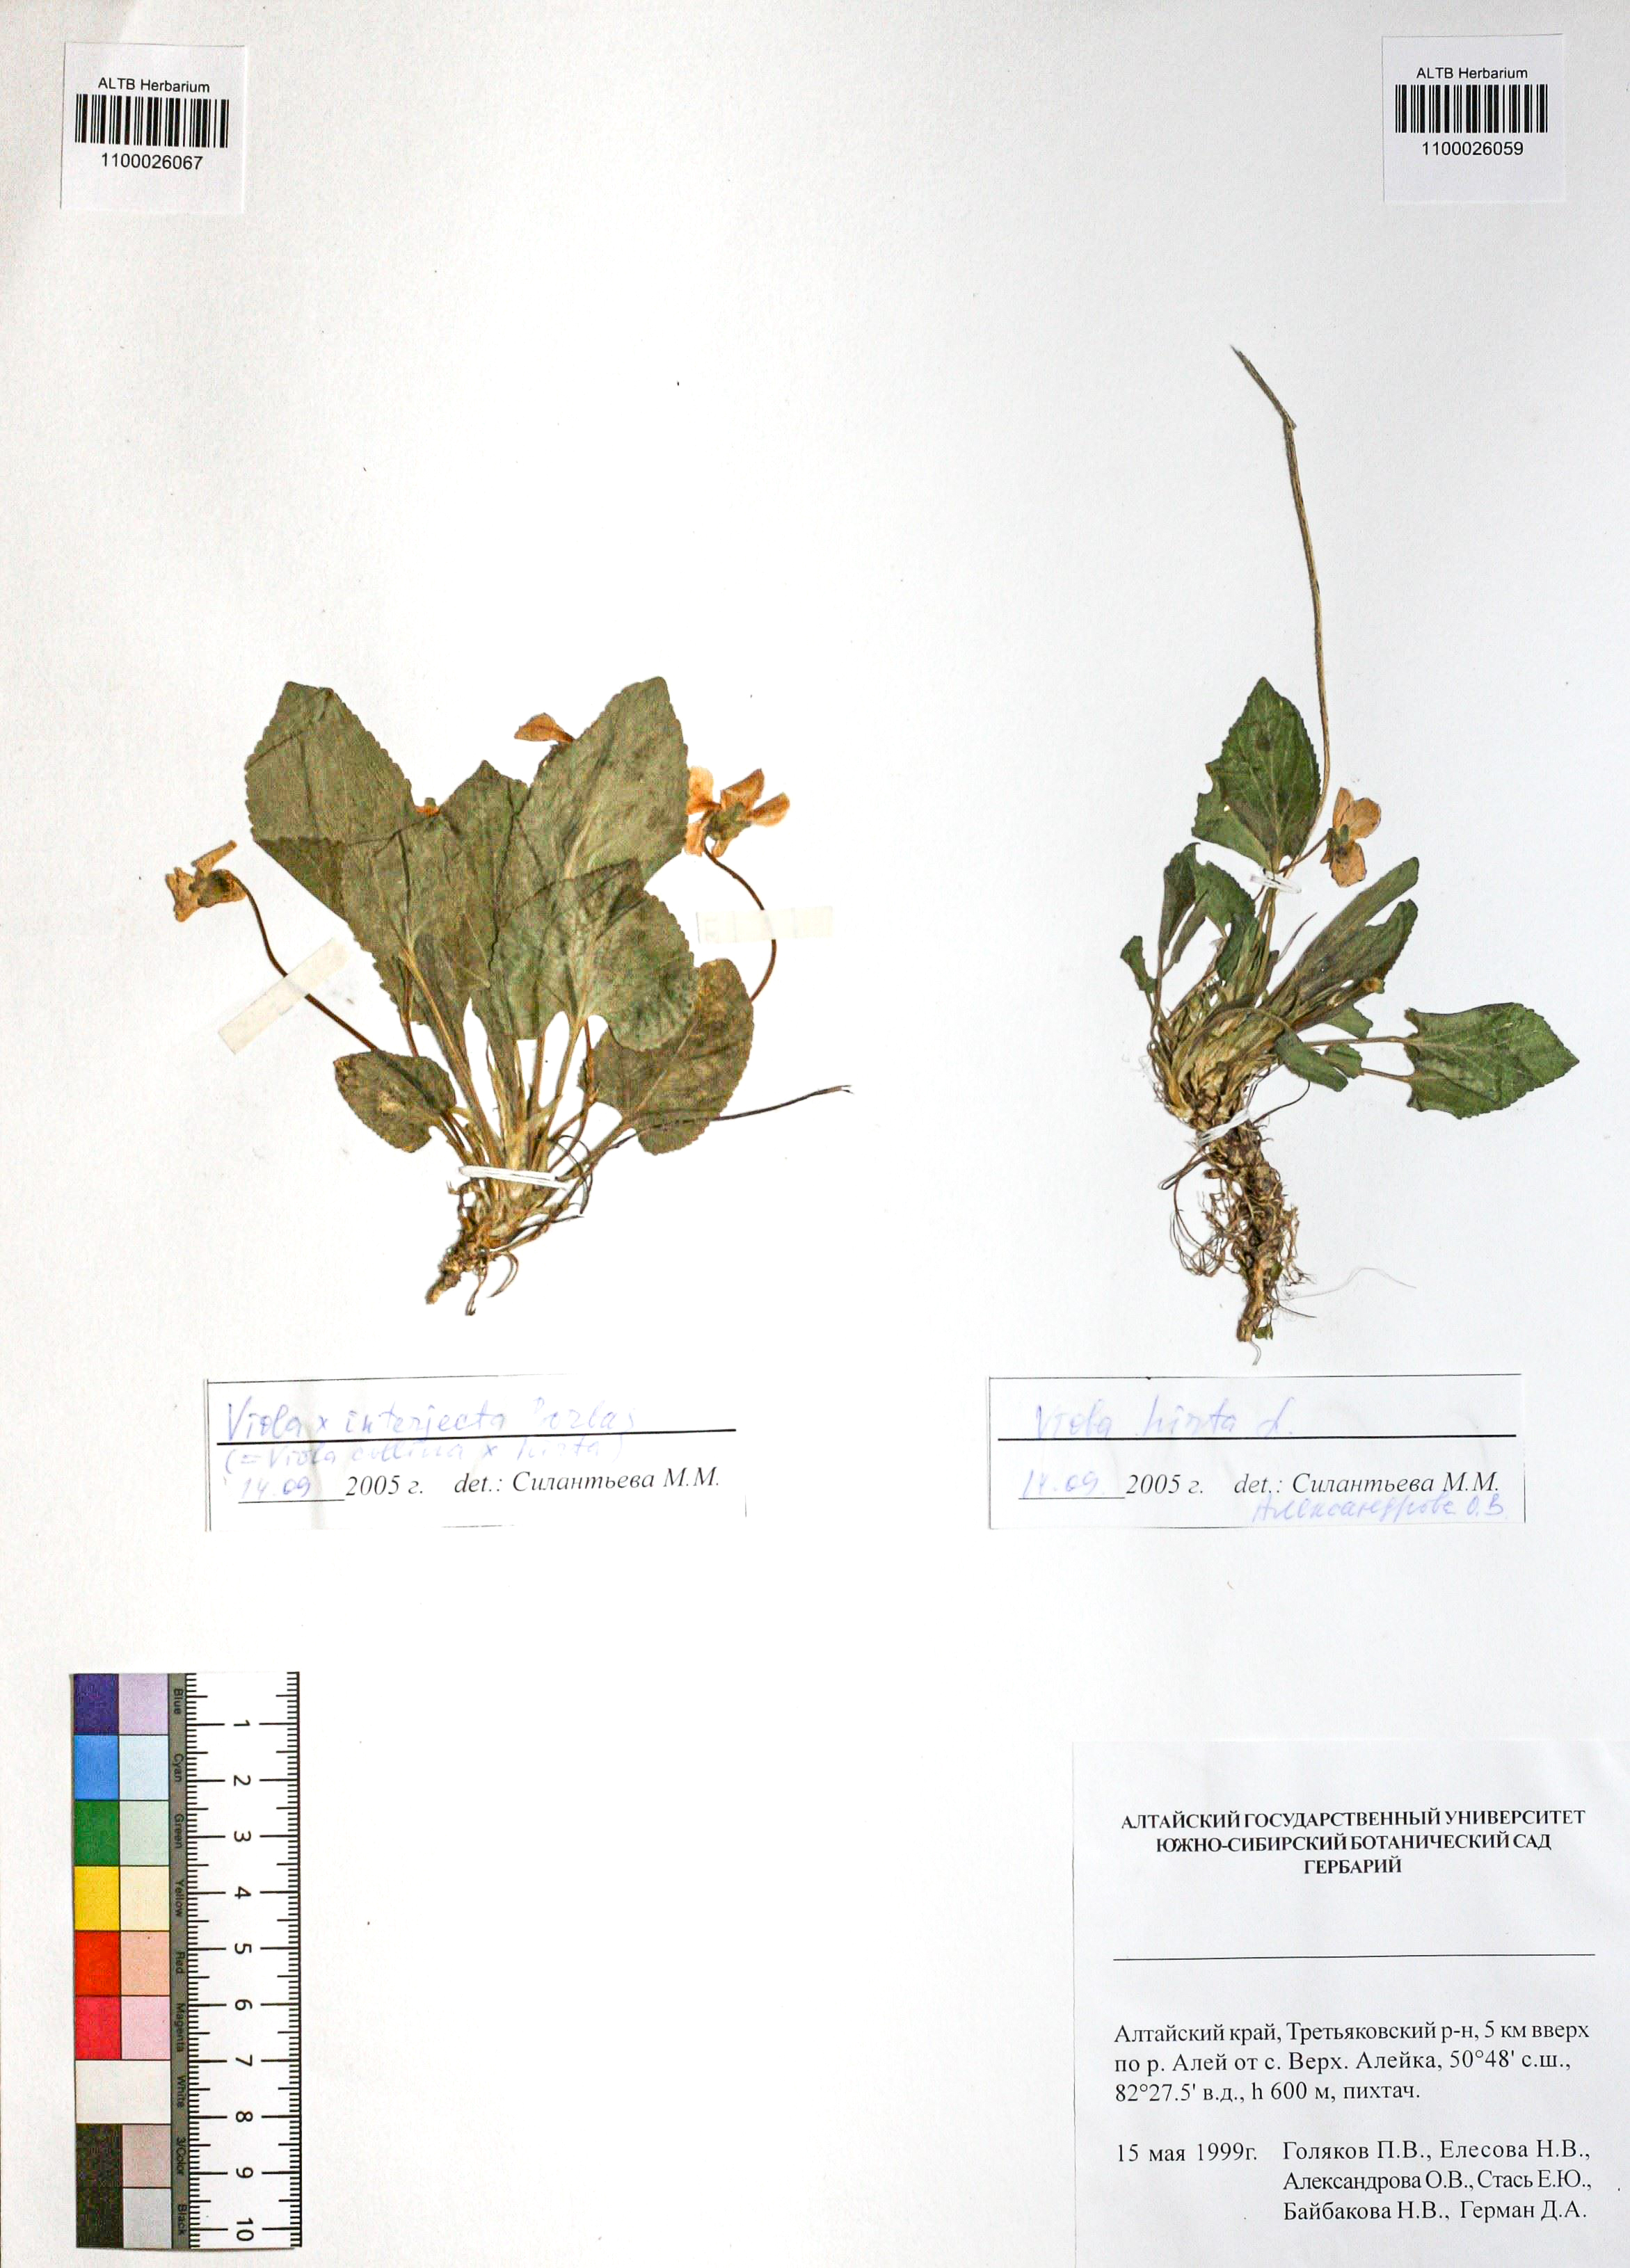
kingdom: Plantae
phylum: Tracheophyta
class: Magnoliopsida
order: Malpighiales
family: Violaceae
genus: Viola
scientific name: Viola hirta
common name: Hairy violet
